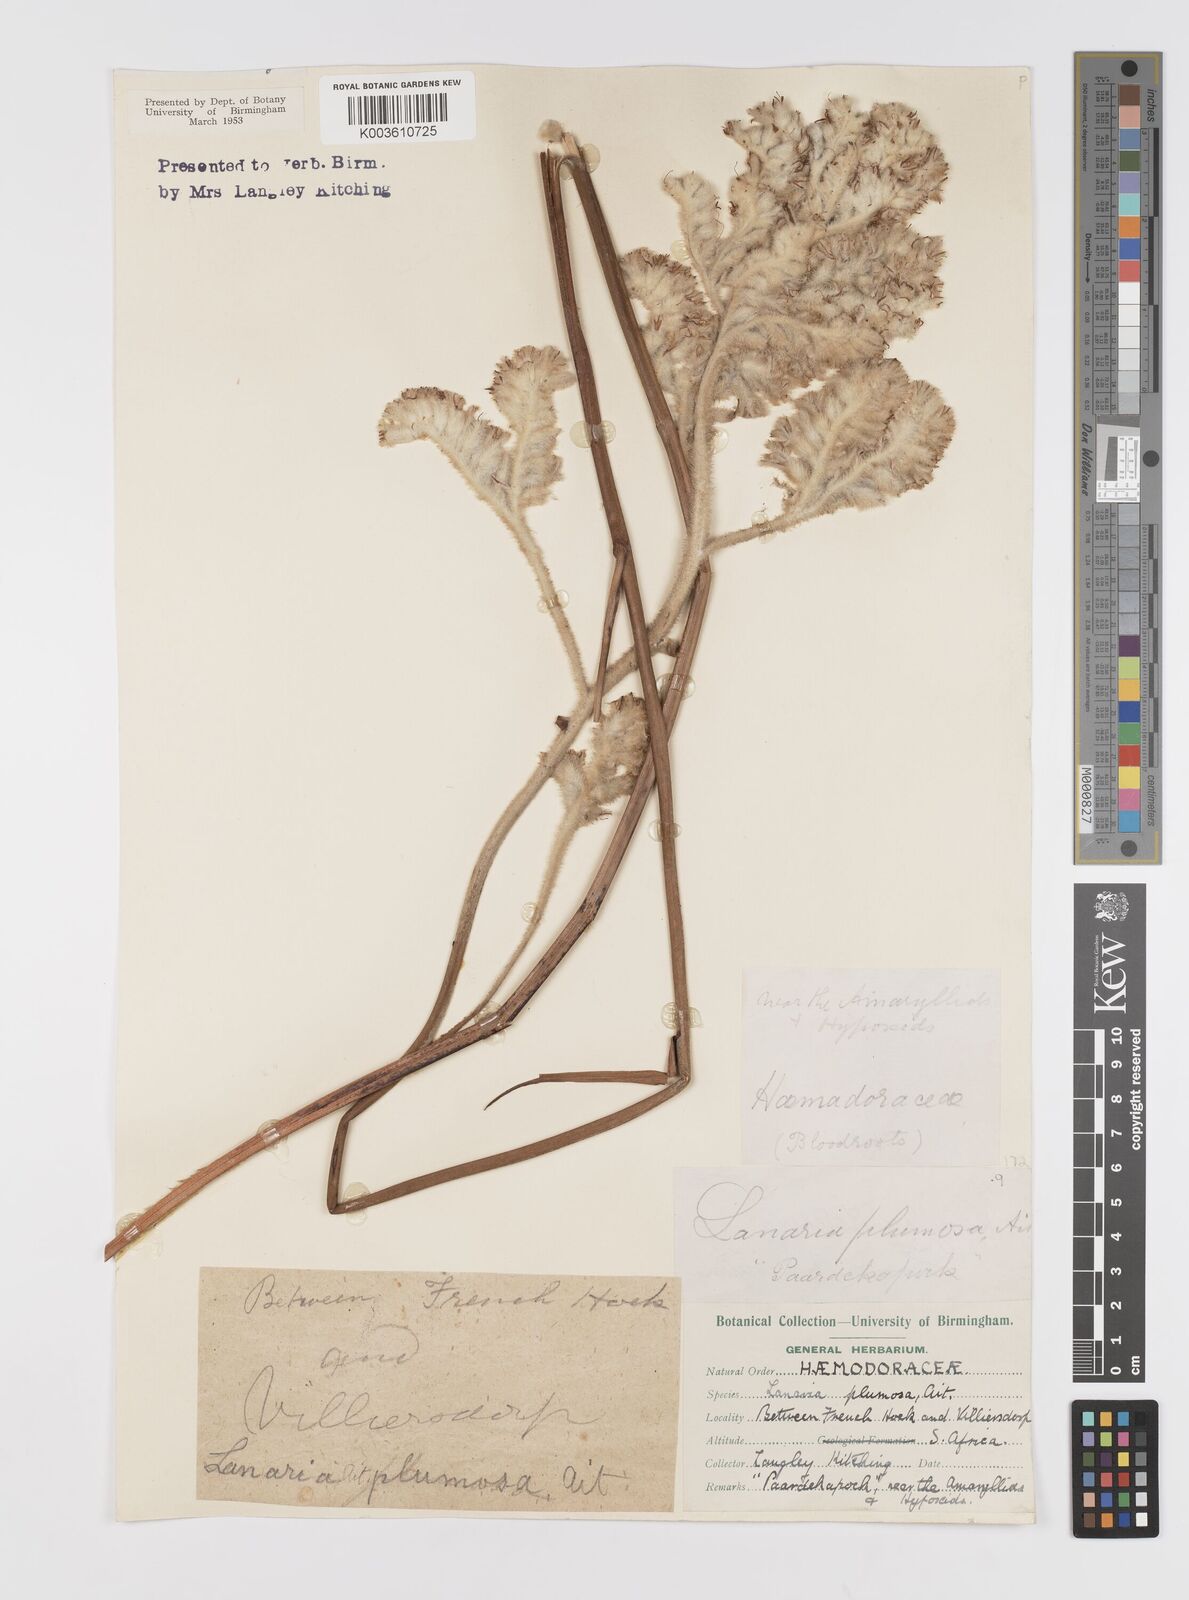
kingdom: Plantae
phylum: Tracheophyta
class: Liliopsida
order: Asparagales
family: Lanariaceae
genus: Lanaria
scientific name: Lanaria lanata
